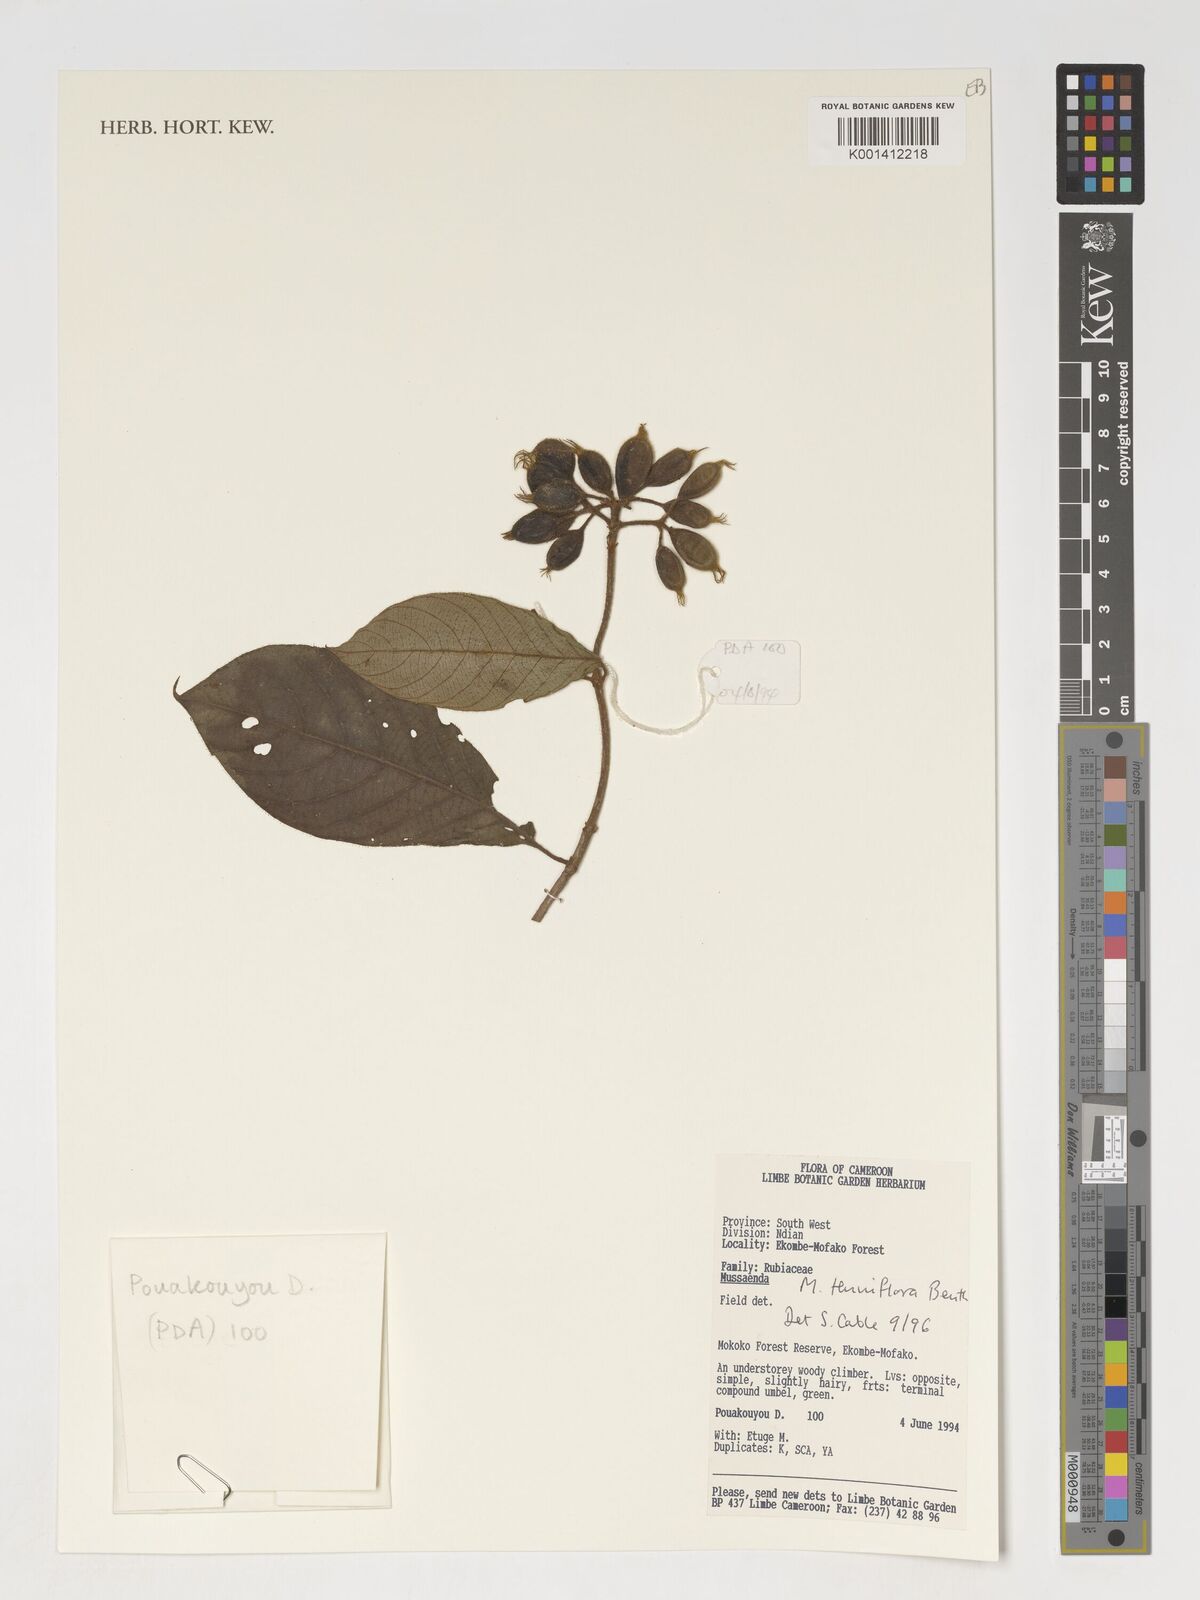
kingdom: Plantae
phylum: Tracheophyta
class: Magnoliopsida
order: Gentianales
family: Rubiaceae
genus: Mussaenda
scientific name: Mussaenda tenuiflora
